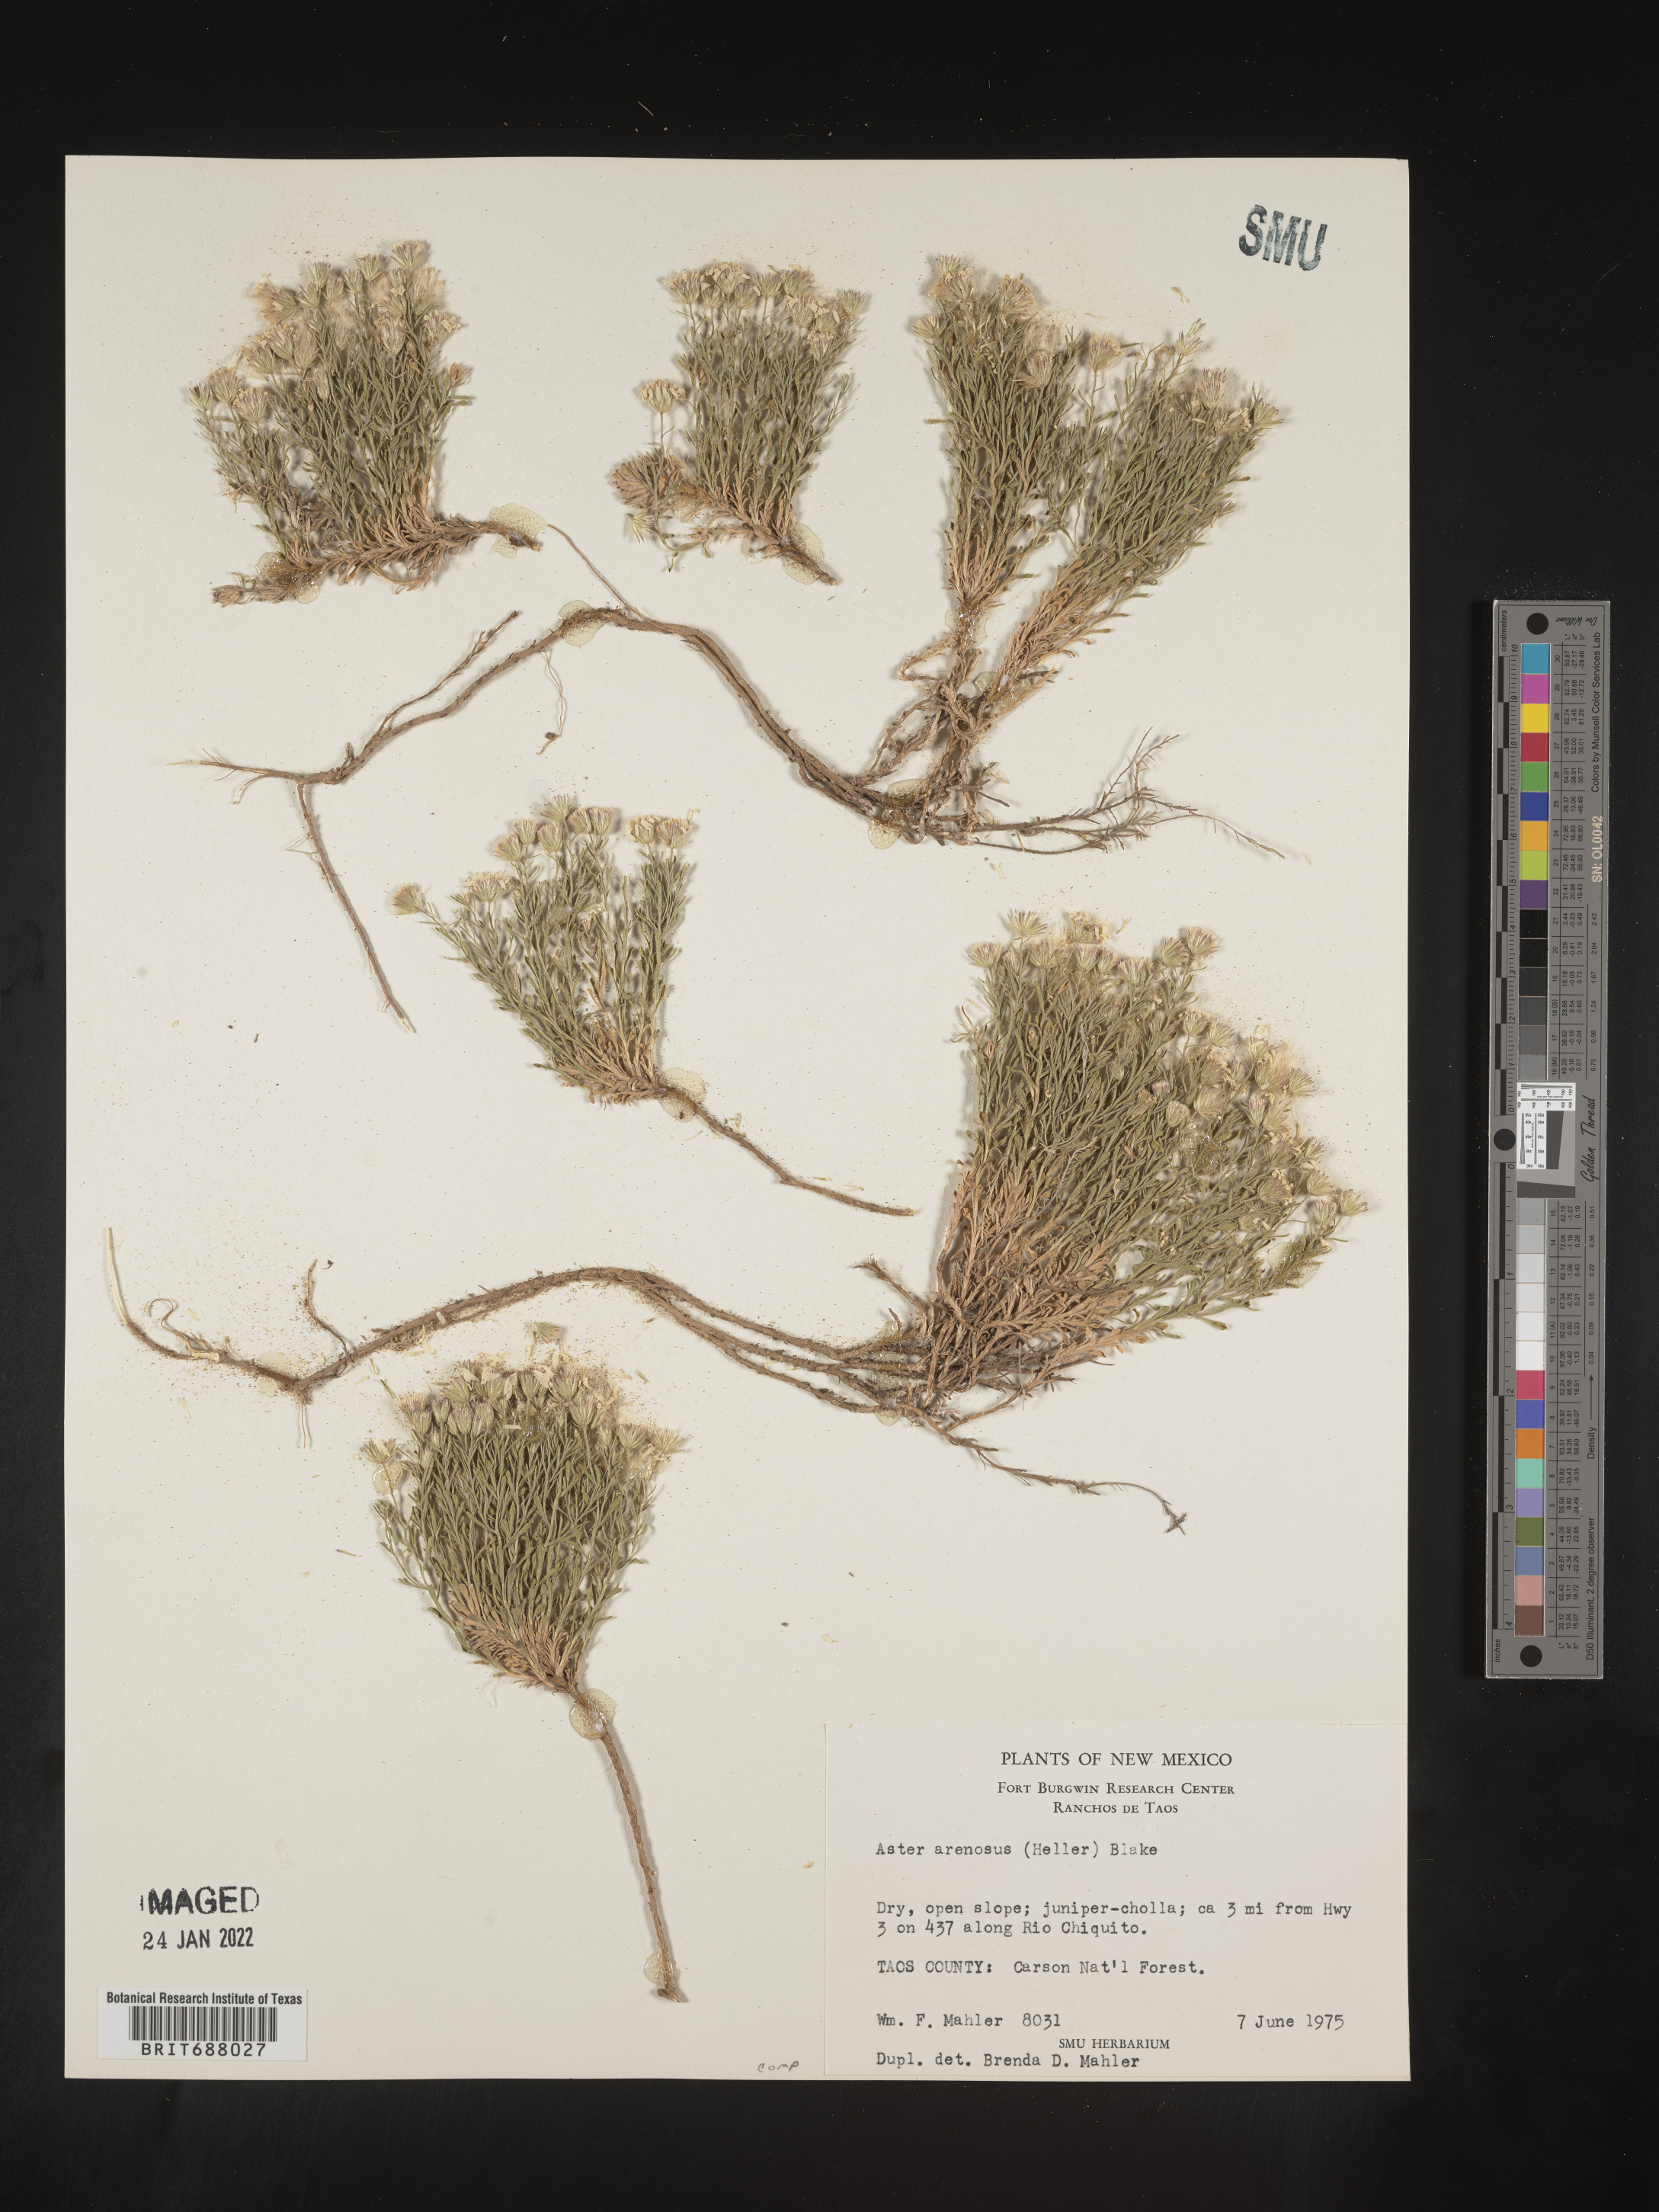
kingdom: Plantae
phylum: Tracheophyta
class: Magnoliopsida
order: Asterales
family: Asteraceae
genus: Chaetopappa
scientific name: Chaetopappa ericoides
